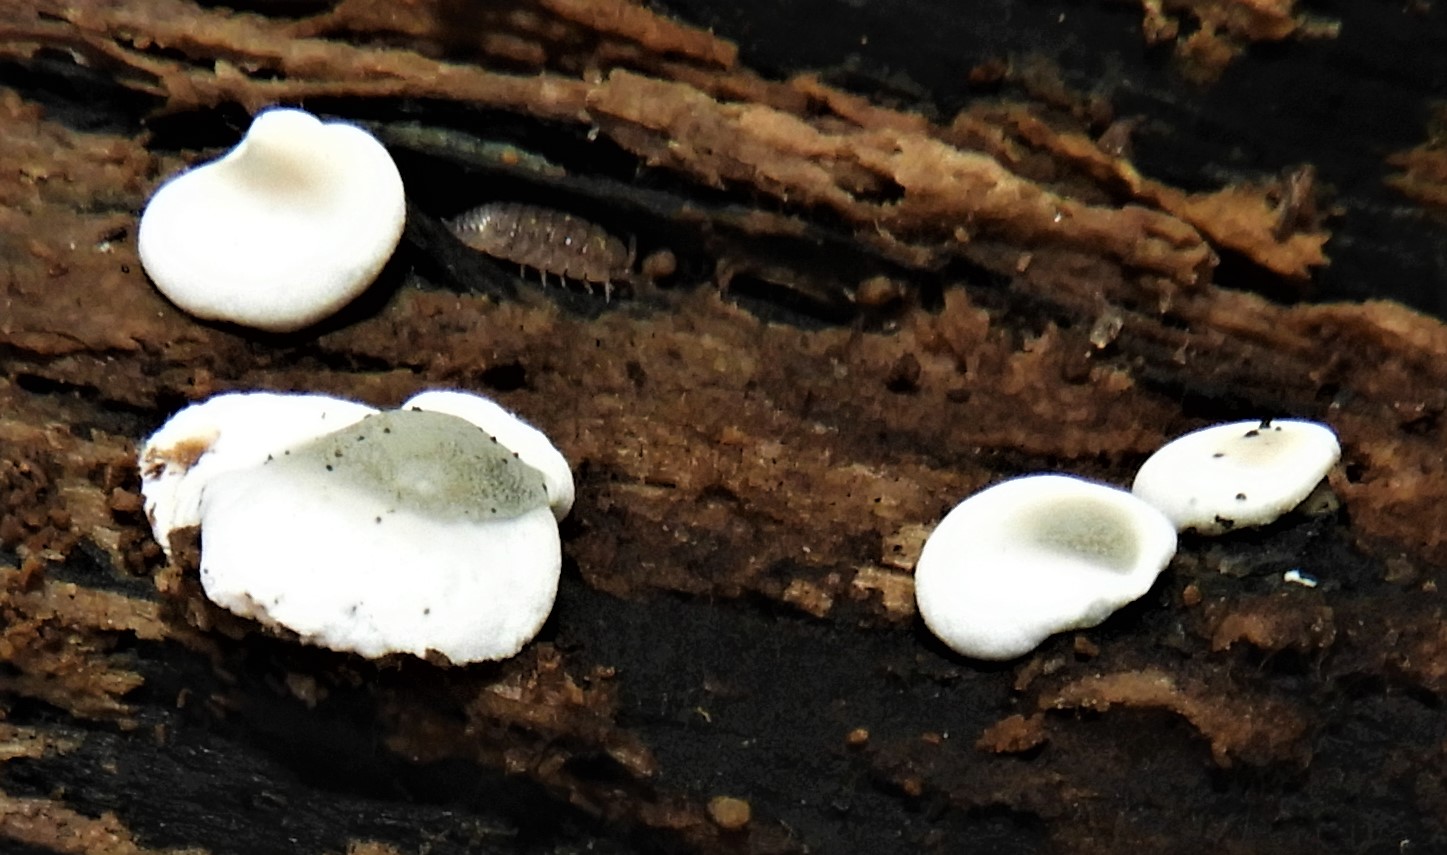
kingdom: Fungi
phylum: Ascomycota
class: Sordariomycetes
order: Xylariales
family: Xylariaceae
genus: Kretzschmaria
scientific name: Kretzschmaria deusta
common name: stor kulsvamp
